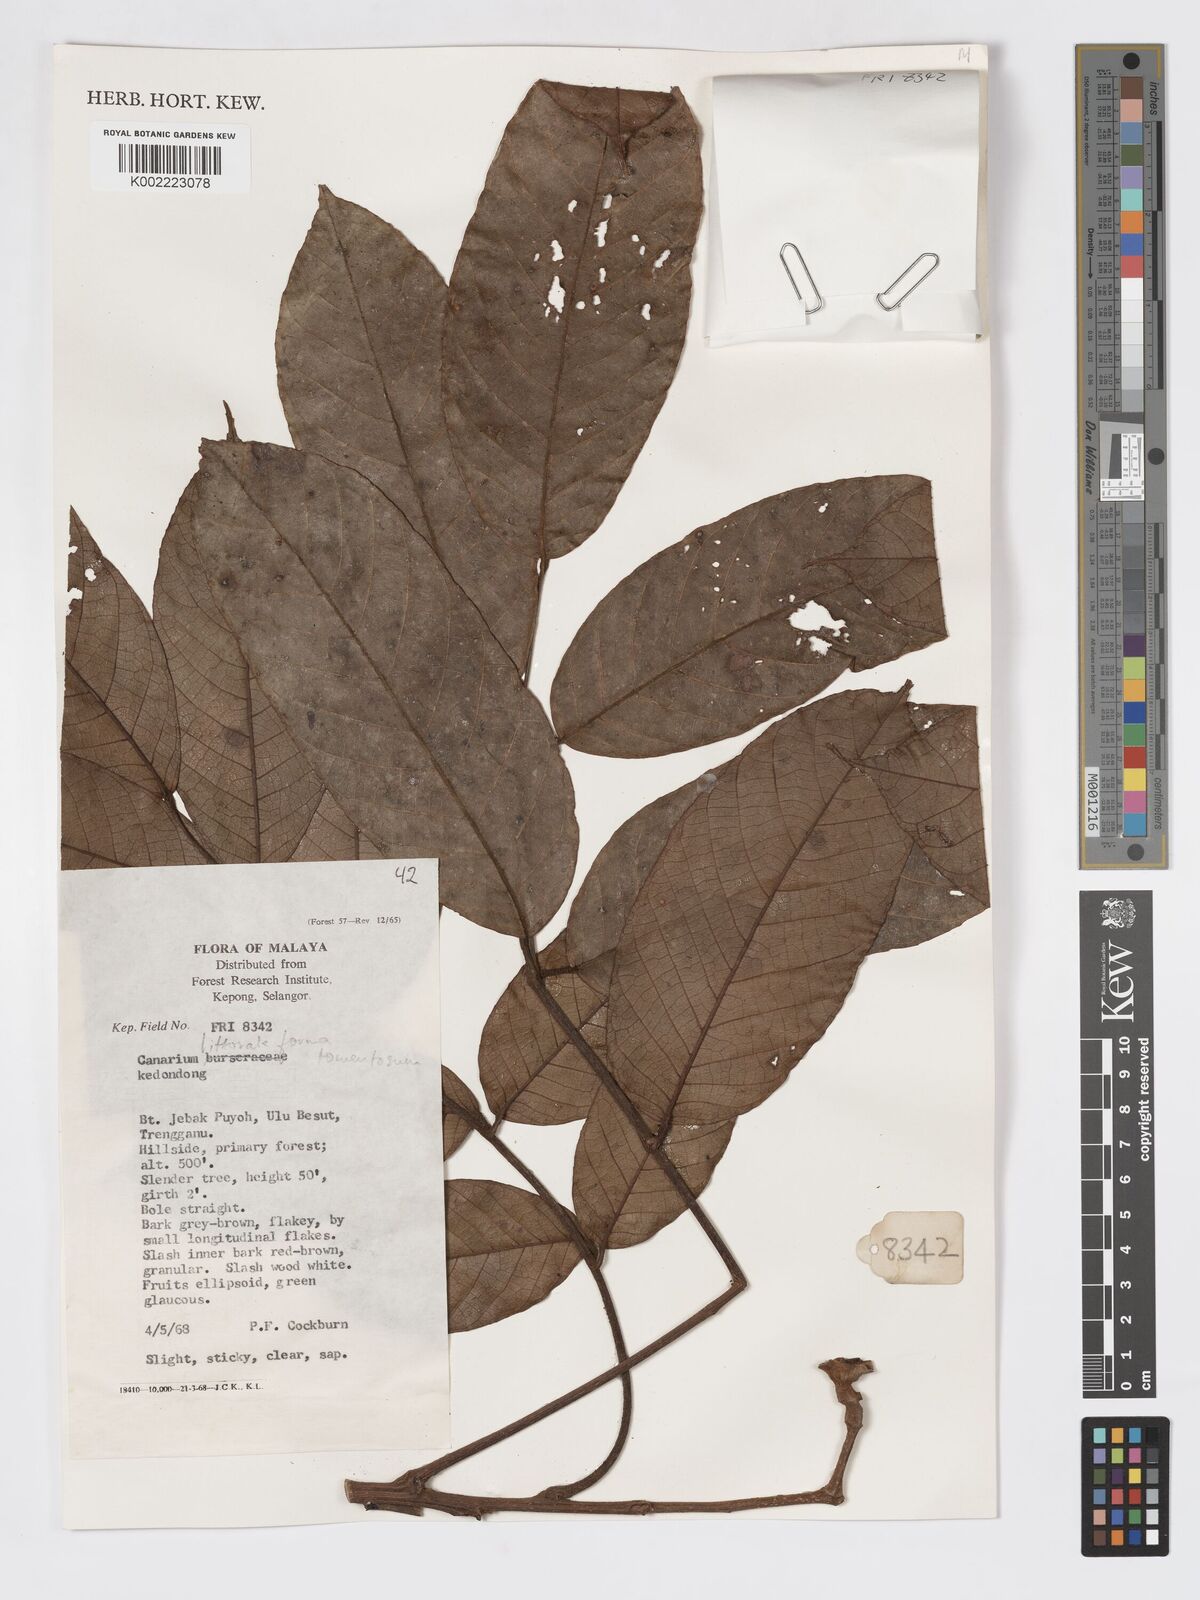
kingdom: Plantae
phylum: Tracheophyta
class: Magnoliopsida
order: Sapindales
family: Burseraceae
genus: Canarium
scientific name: Canarium littorale
